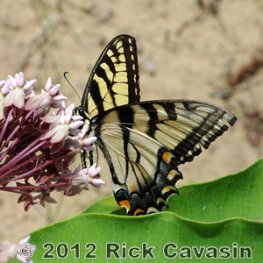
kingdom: Animalia
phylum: Arthropoda
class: Insecta
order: Lepidoptera
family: Papilionidae
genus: Pterourus
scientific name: Pterourus glaucus
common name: Eastern Tiger Swallowtail
